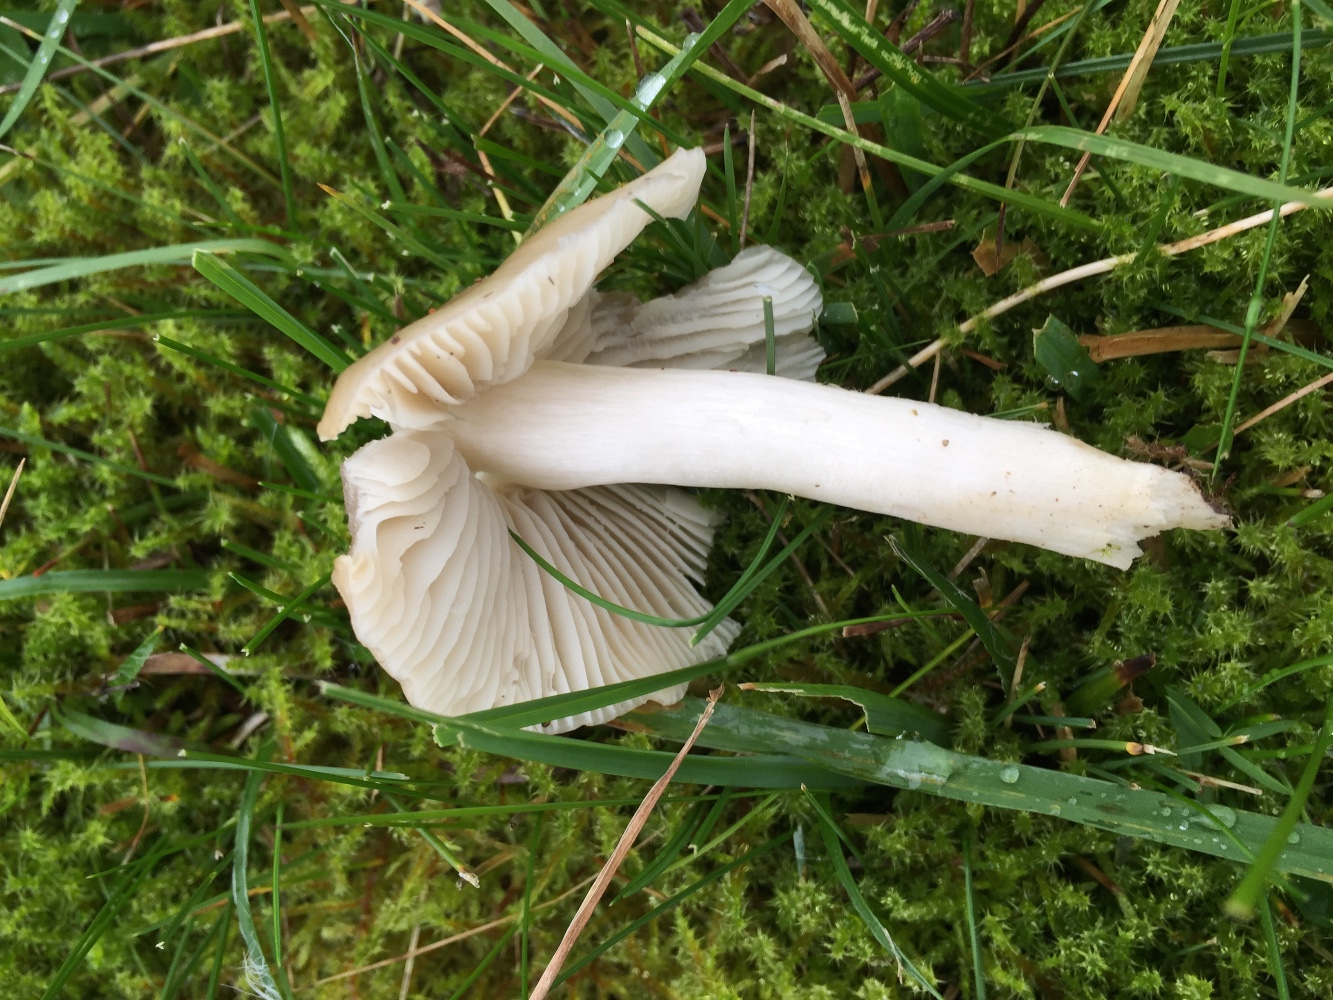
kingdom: Fungi
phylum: Basidiomycota
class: Agaricomycetes
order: Agaricales
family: Hygrophoraceae
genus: Cuphophyllus
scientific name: Cuphophyllus fornicatus
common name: gråbrun vokshat
